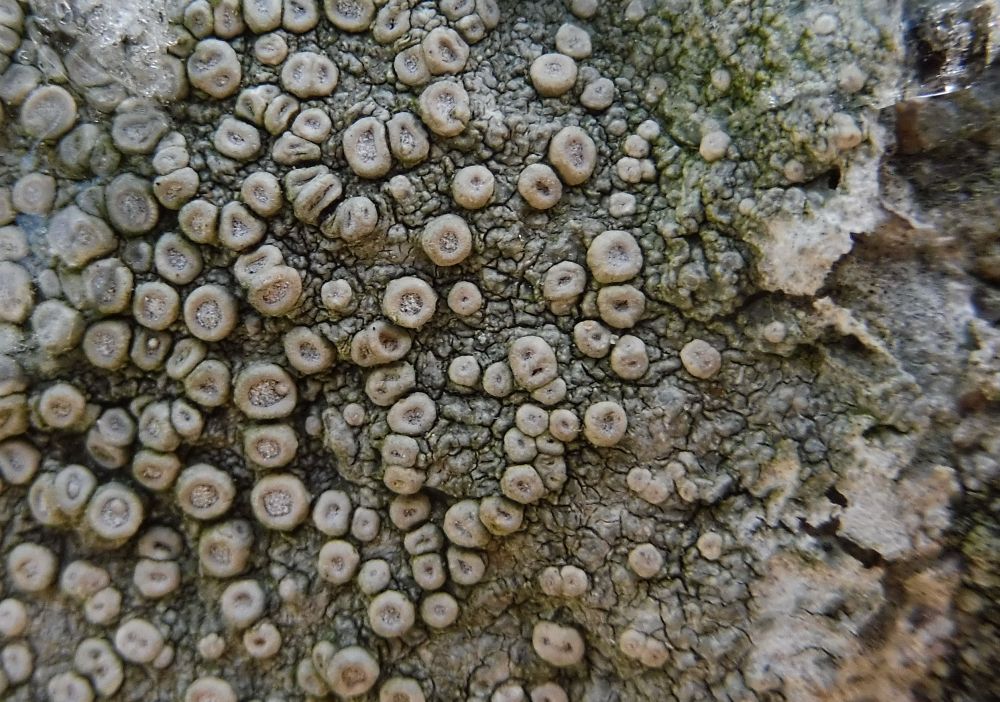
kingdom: Fungi
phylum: Ascomycota
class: Lecanoromycetes
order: Pertusariales
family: Ochrolechiaceae
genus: Ochrolechia
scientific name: Ochrolechia parella
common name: almindelig blegskivelav
